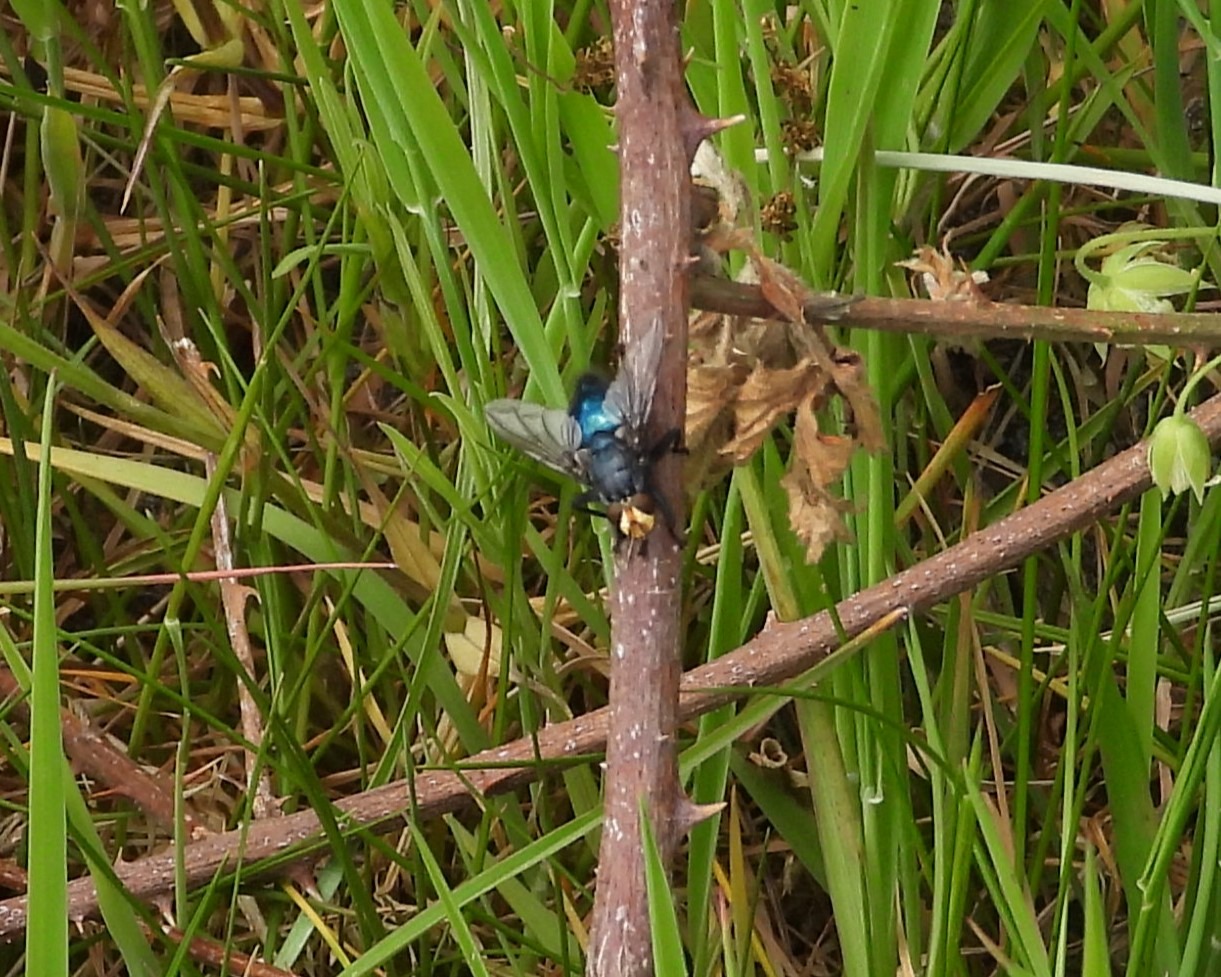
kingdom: Animalia
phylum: Arthropoda
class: Insecta
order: Diptera
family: Calliphoridae
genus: Cynomya
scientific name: Cynomya mortuorum
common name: Dødsflue
